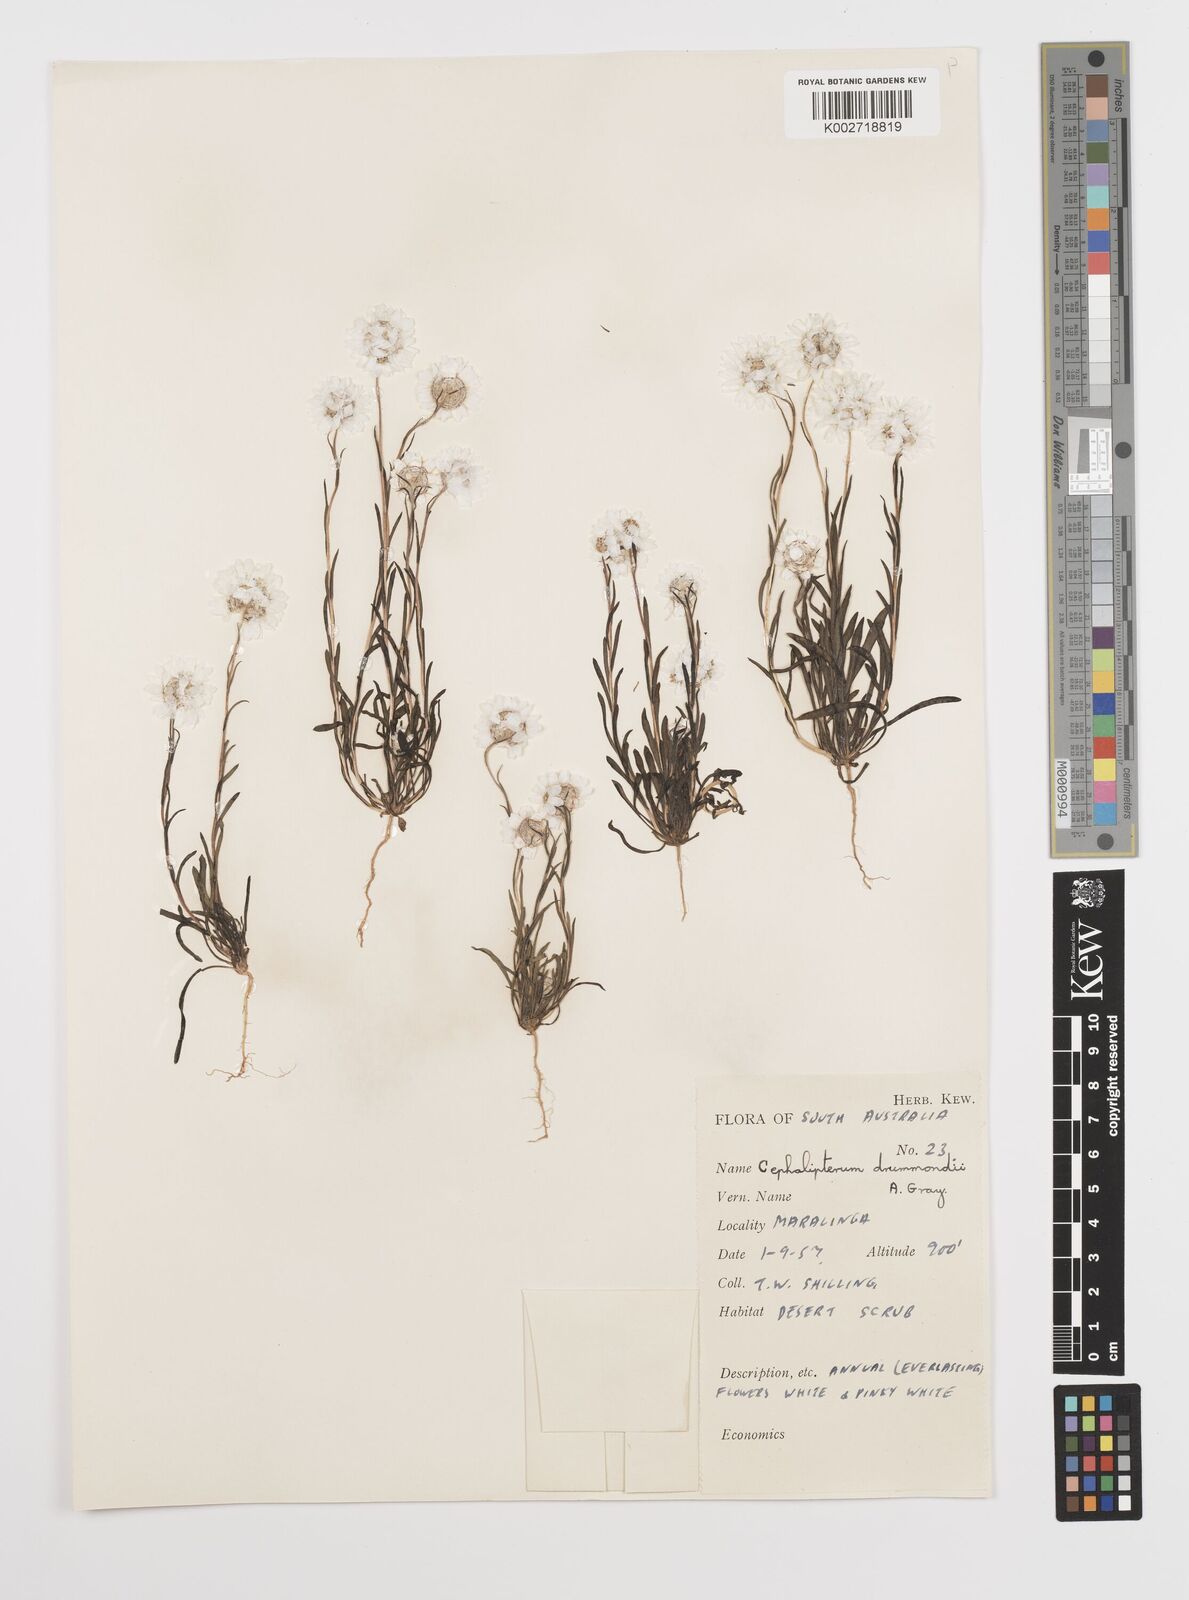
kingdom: Plantae
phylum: Tracheophyta
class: Magnoliopsida
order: Asterales
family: Asteraceae
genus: Cephalipterum
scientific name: Cephalipterum drummondii
